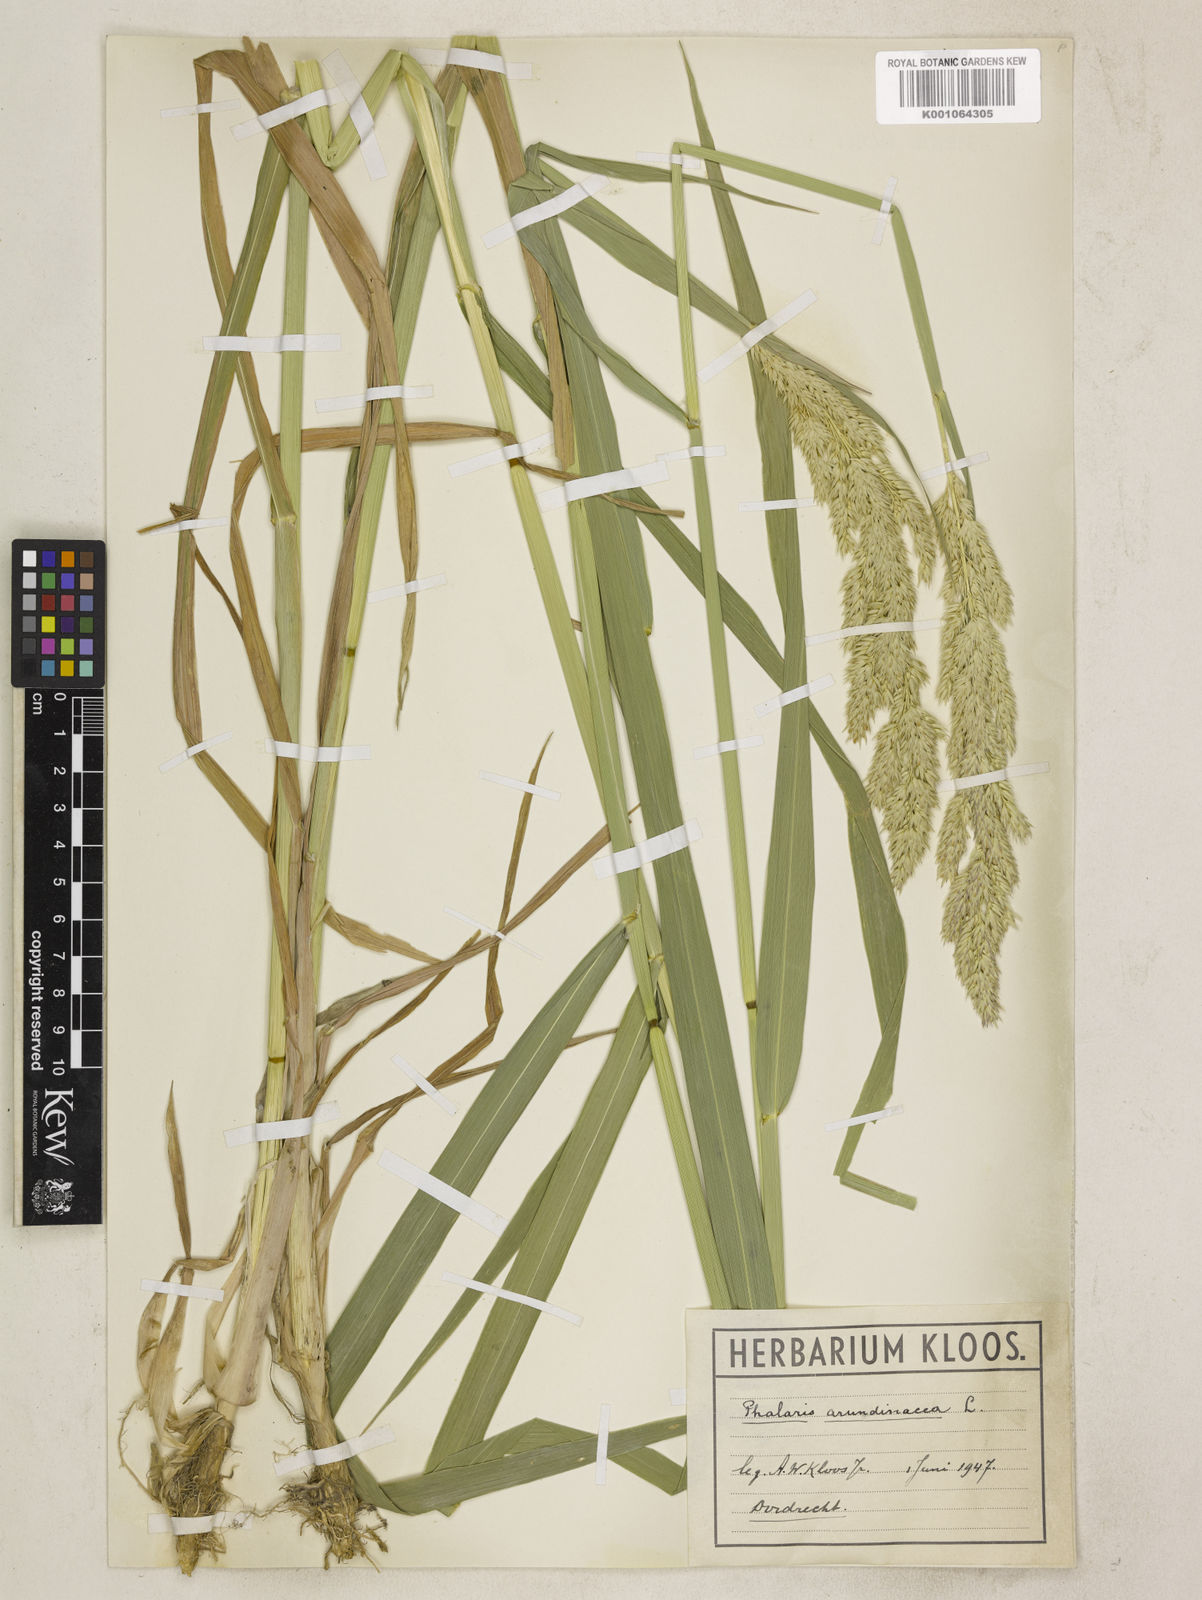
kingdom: Plantae
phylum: Tracheophyta
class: Liliopsida
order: Poales
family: Poaceae
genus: Phalaris
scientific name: Phalaris arundinacea
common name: Reed canary-grass
